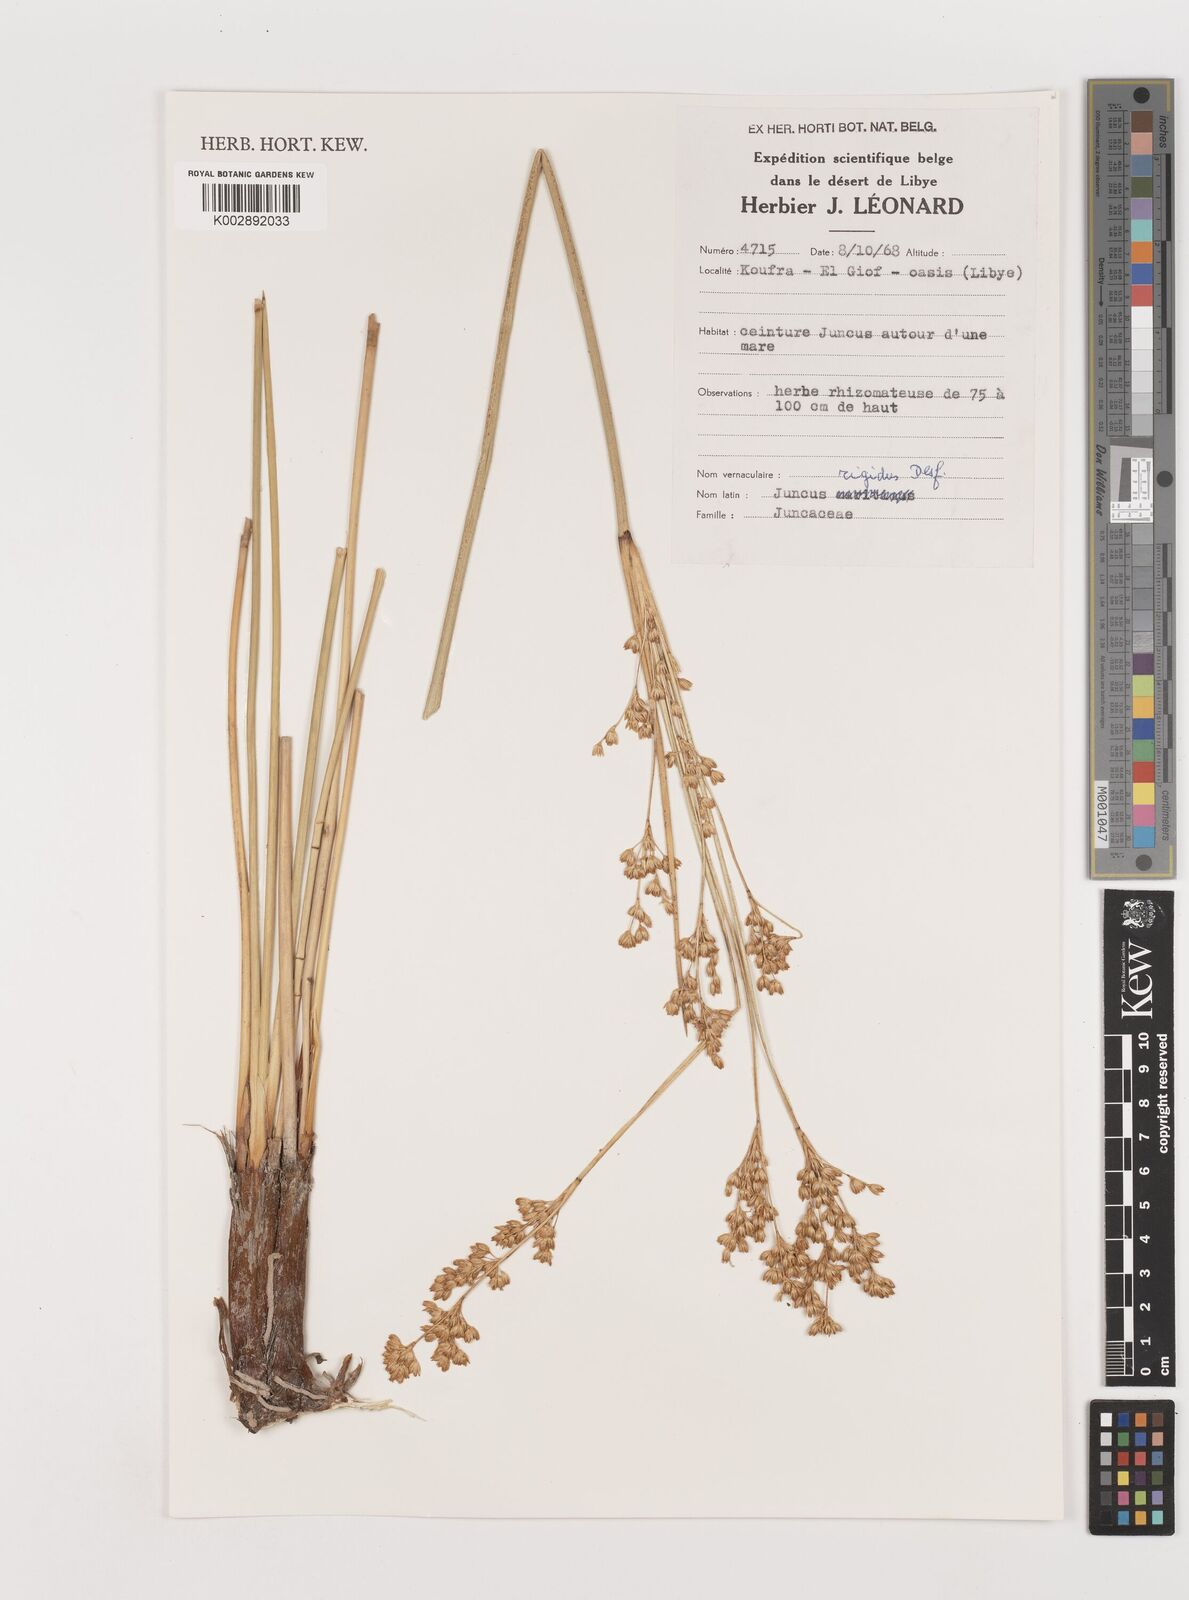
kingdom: Plantae
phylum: Tracheophyta
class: Liliopsida
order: Poales
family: Juncaceae
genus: Juncus
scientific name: Juncus rigidus
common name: Hard sea rush
